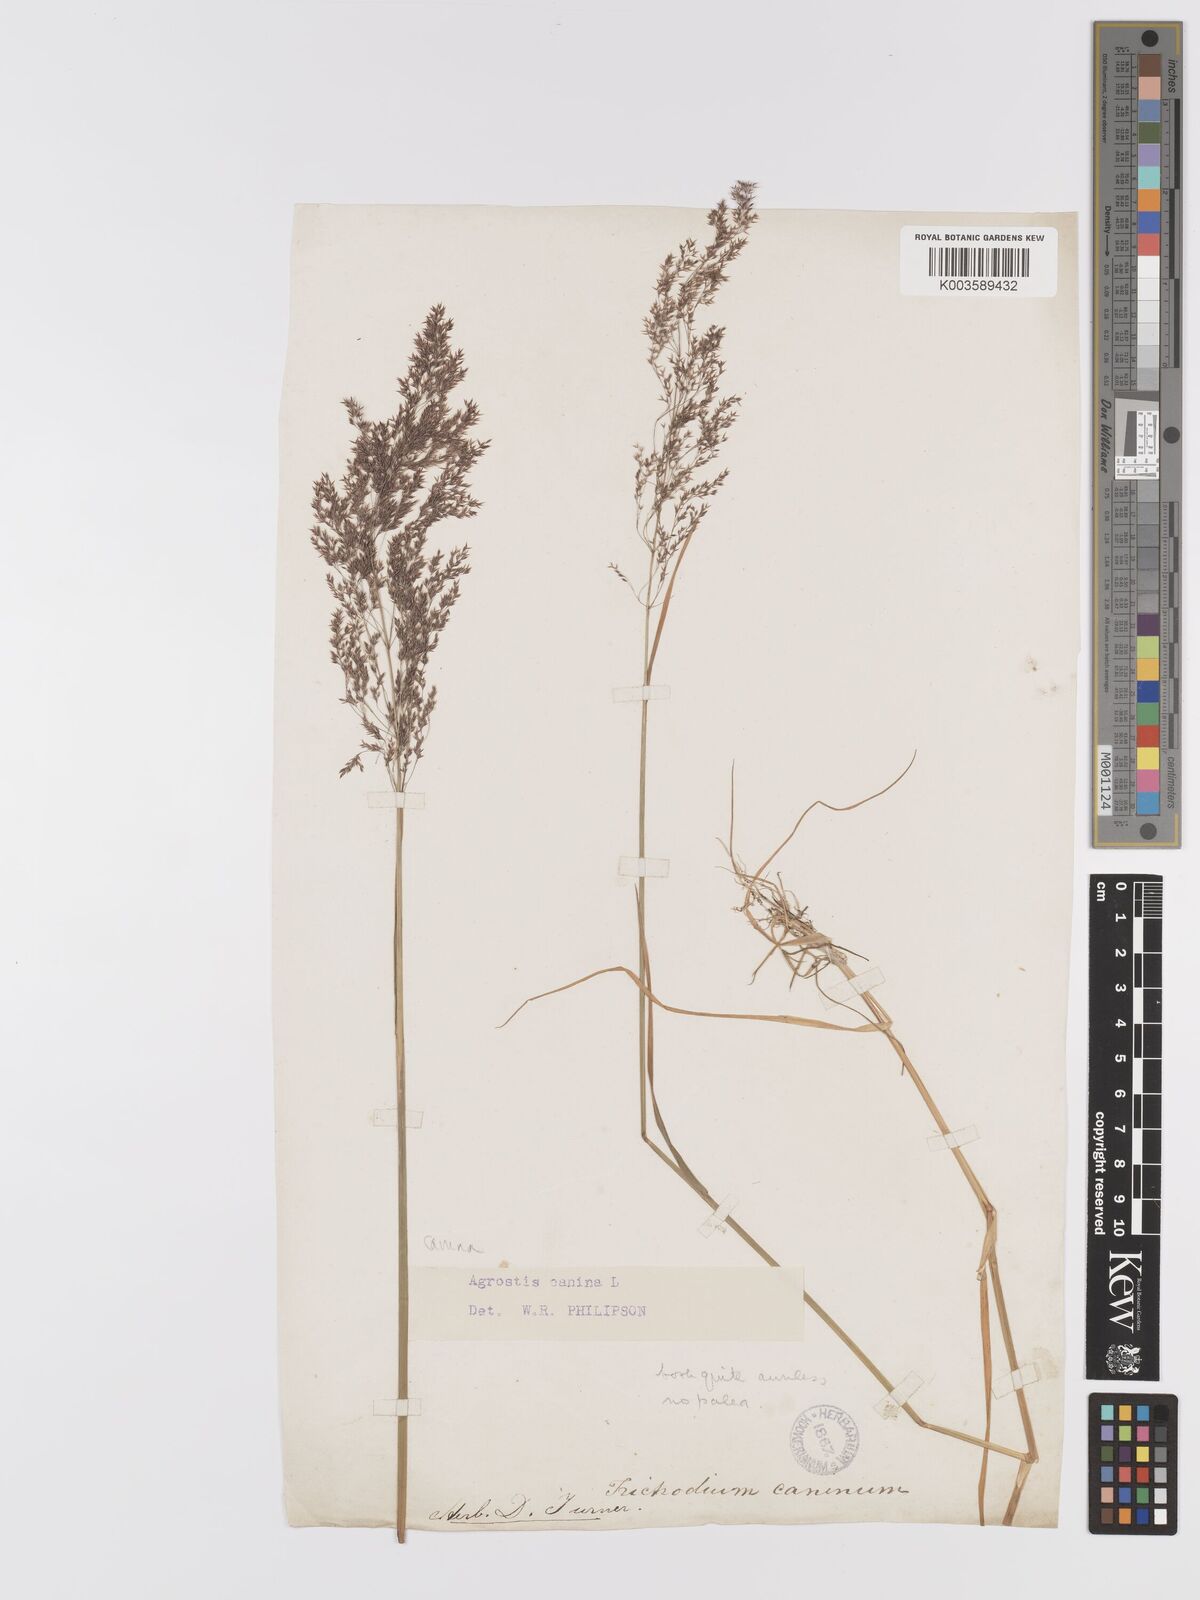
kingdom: Plantae
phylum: Tracheophyta
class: Liliopsida
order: Poales
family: Poaceae
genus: Agrostis
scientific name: Agrostis canina
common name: Velvet bent
